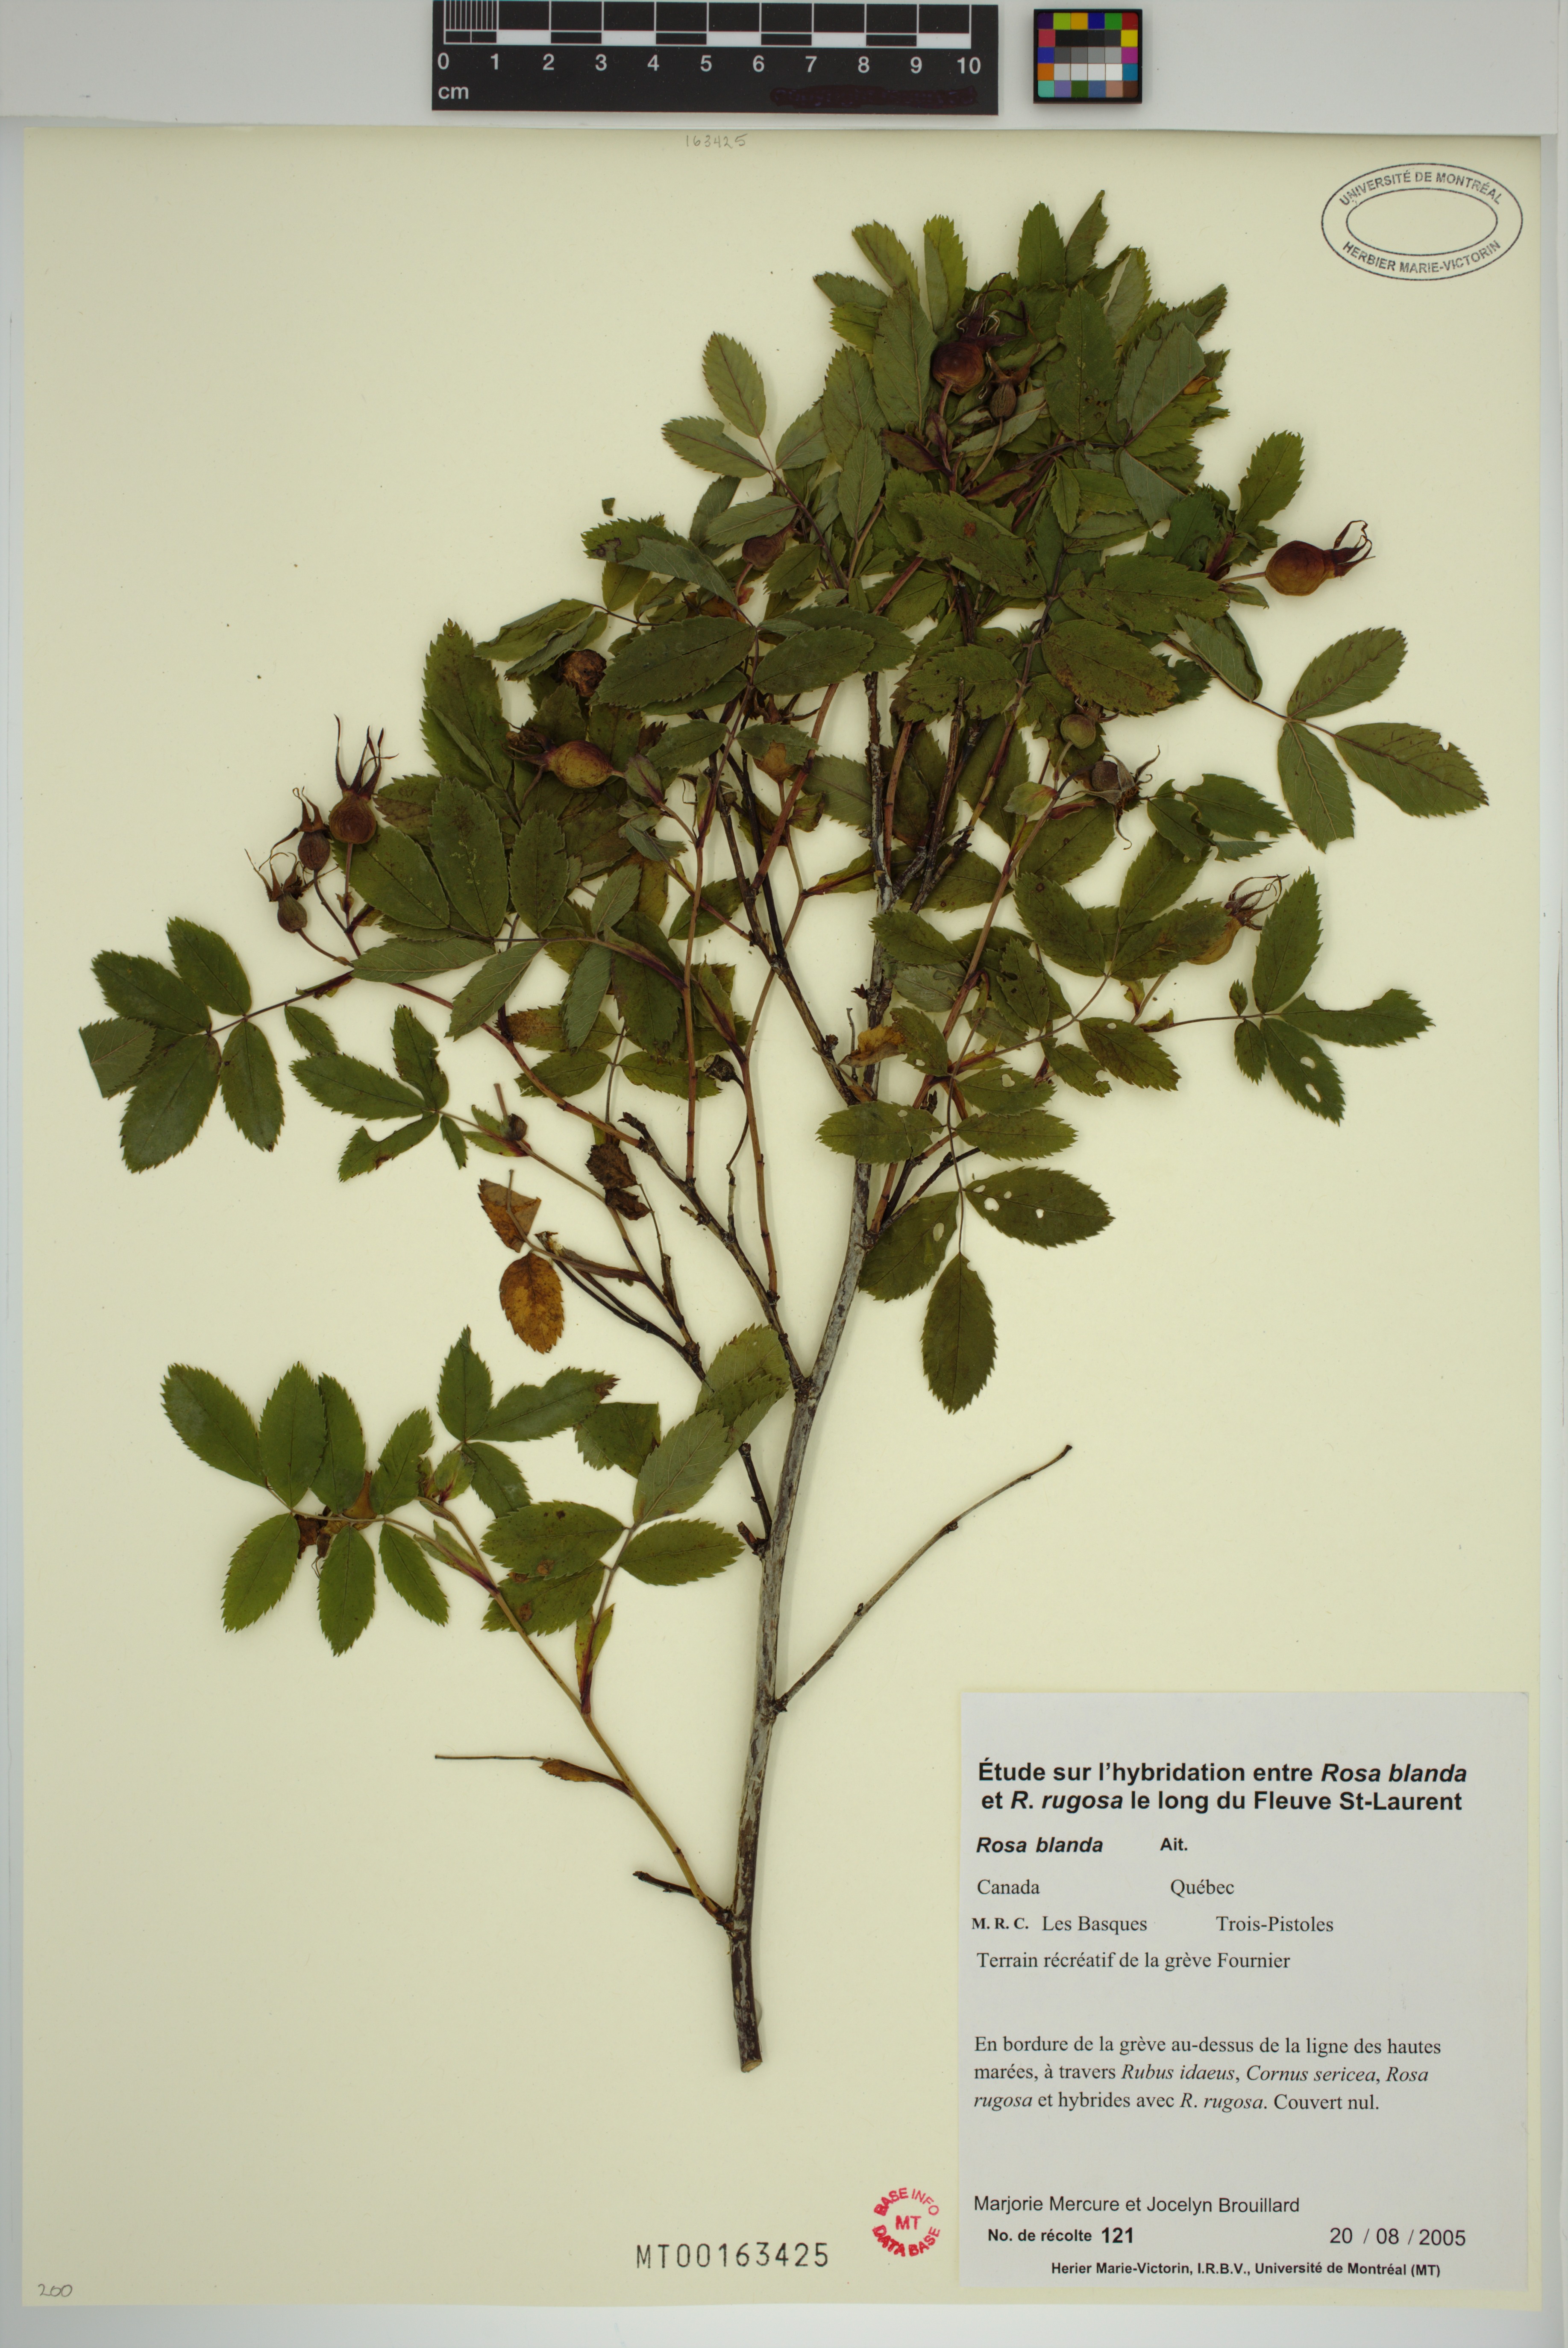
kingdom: Plantae
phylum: Tracheophyta
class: Magnoliopsida
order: Rosales
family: Rosaceae
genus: Rosa
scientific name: Rosa blanda
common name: Smooth rose
